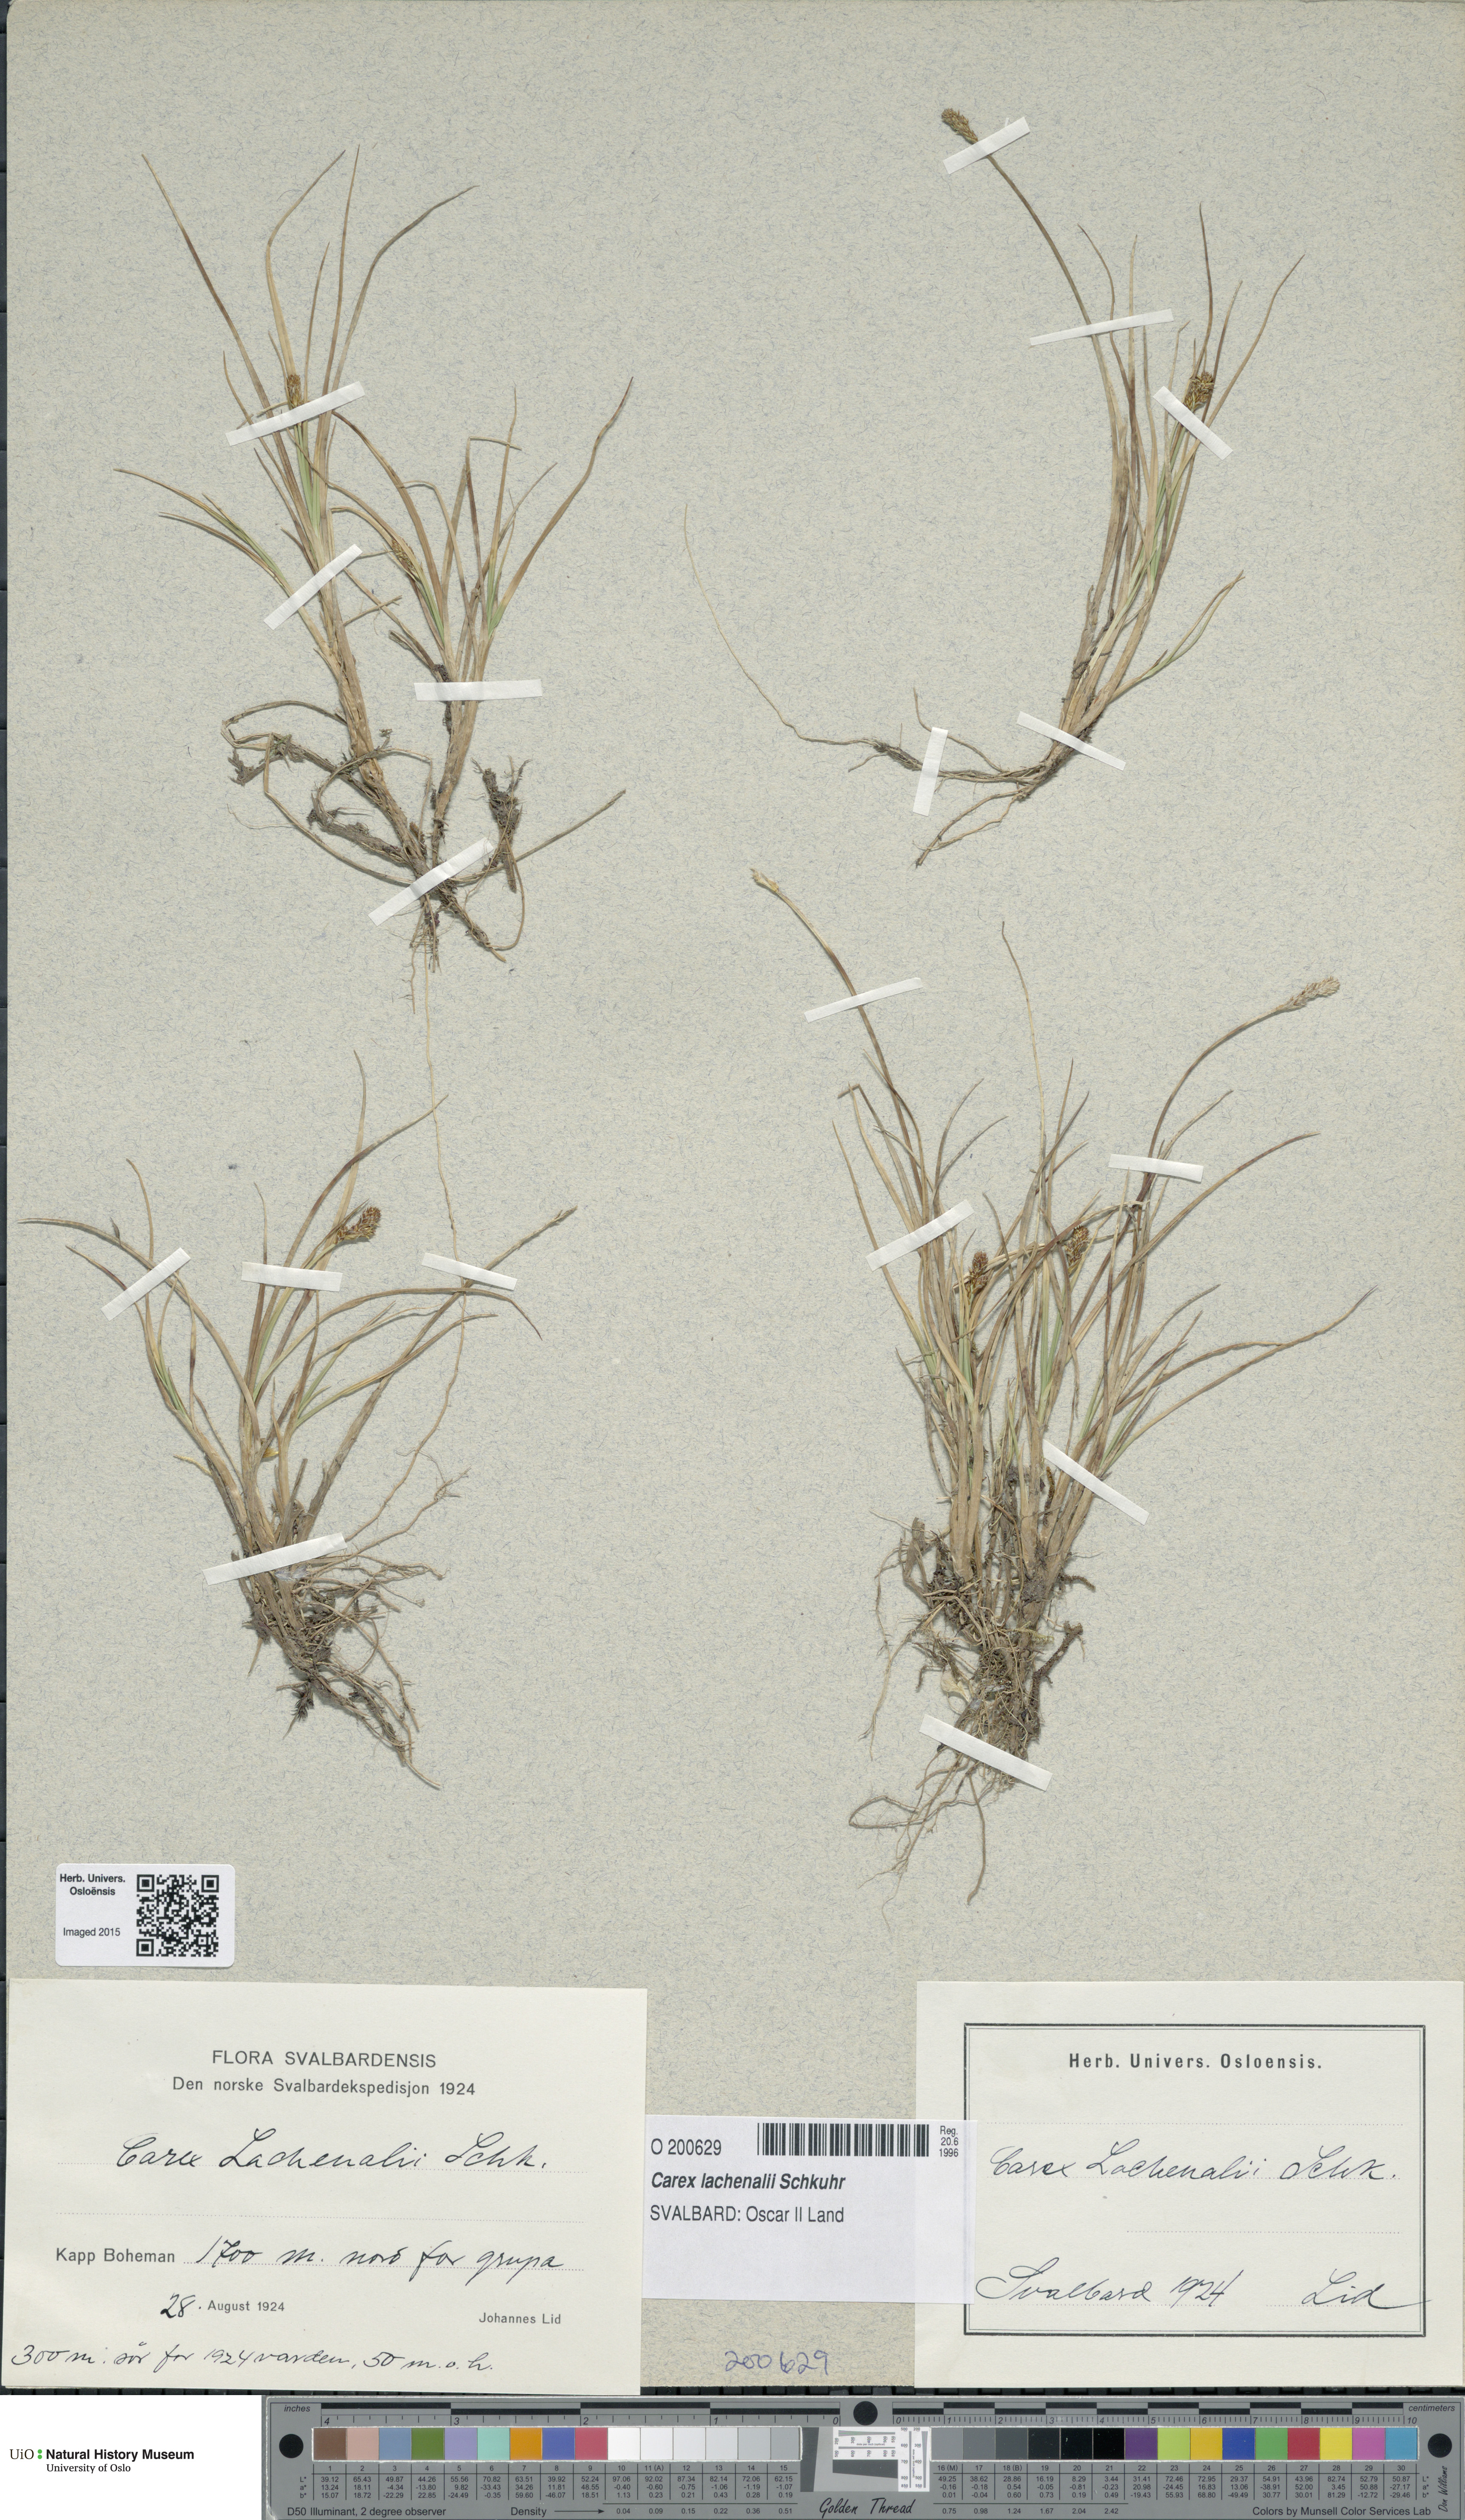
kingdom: Plantae
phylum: Tracheophyta
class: Liliopsida
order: Poales
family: Cyperaceae
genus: Carex
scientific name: Carex lachenalii
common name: Hare's-foot sedge
